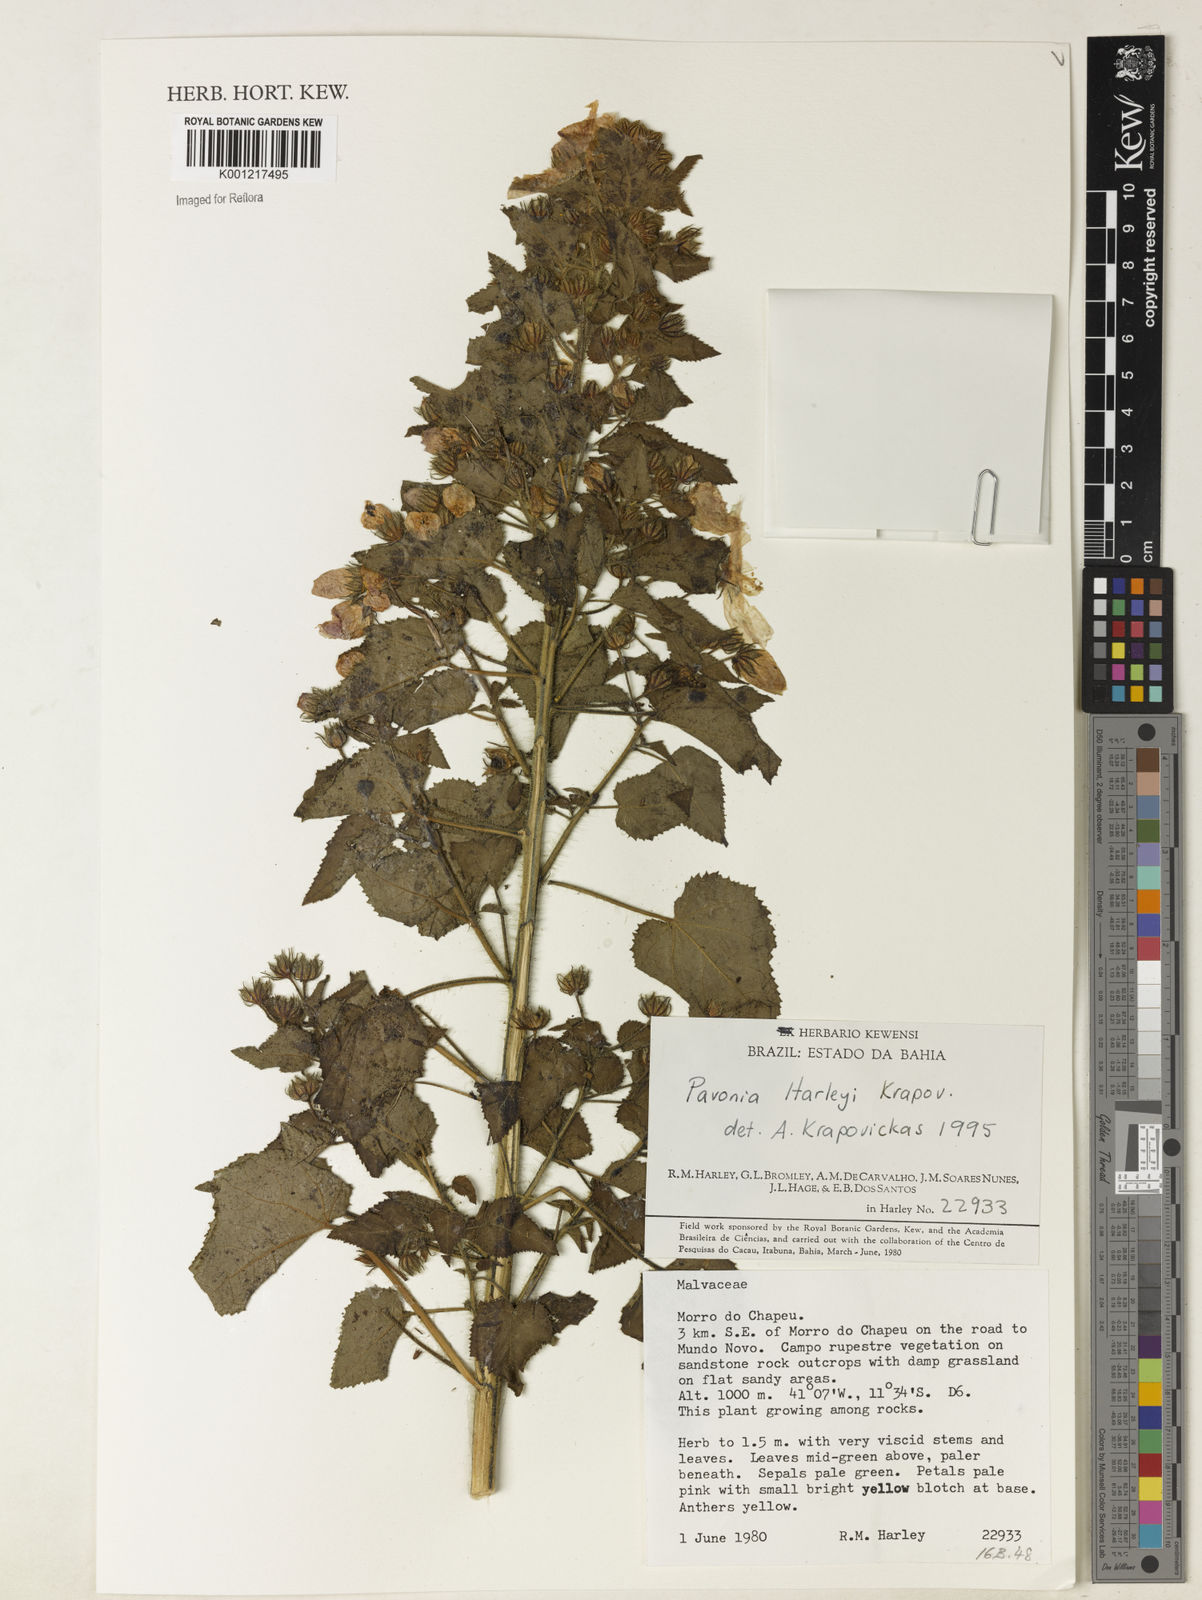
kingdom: Plantae
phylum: Tracheophyta
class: Magnoliopsida
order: Malvales
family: Malvaceae
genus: Pavonia
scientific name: Pavonia harleyi
